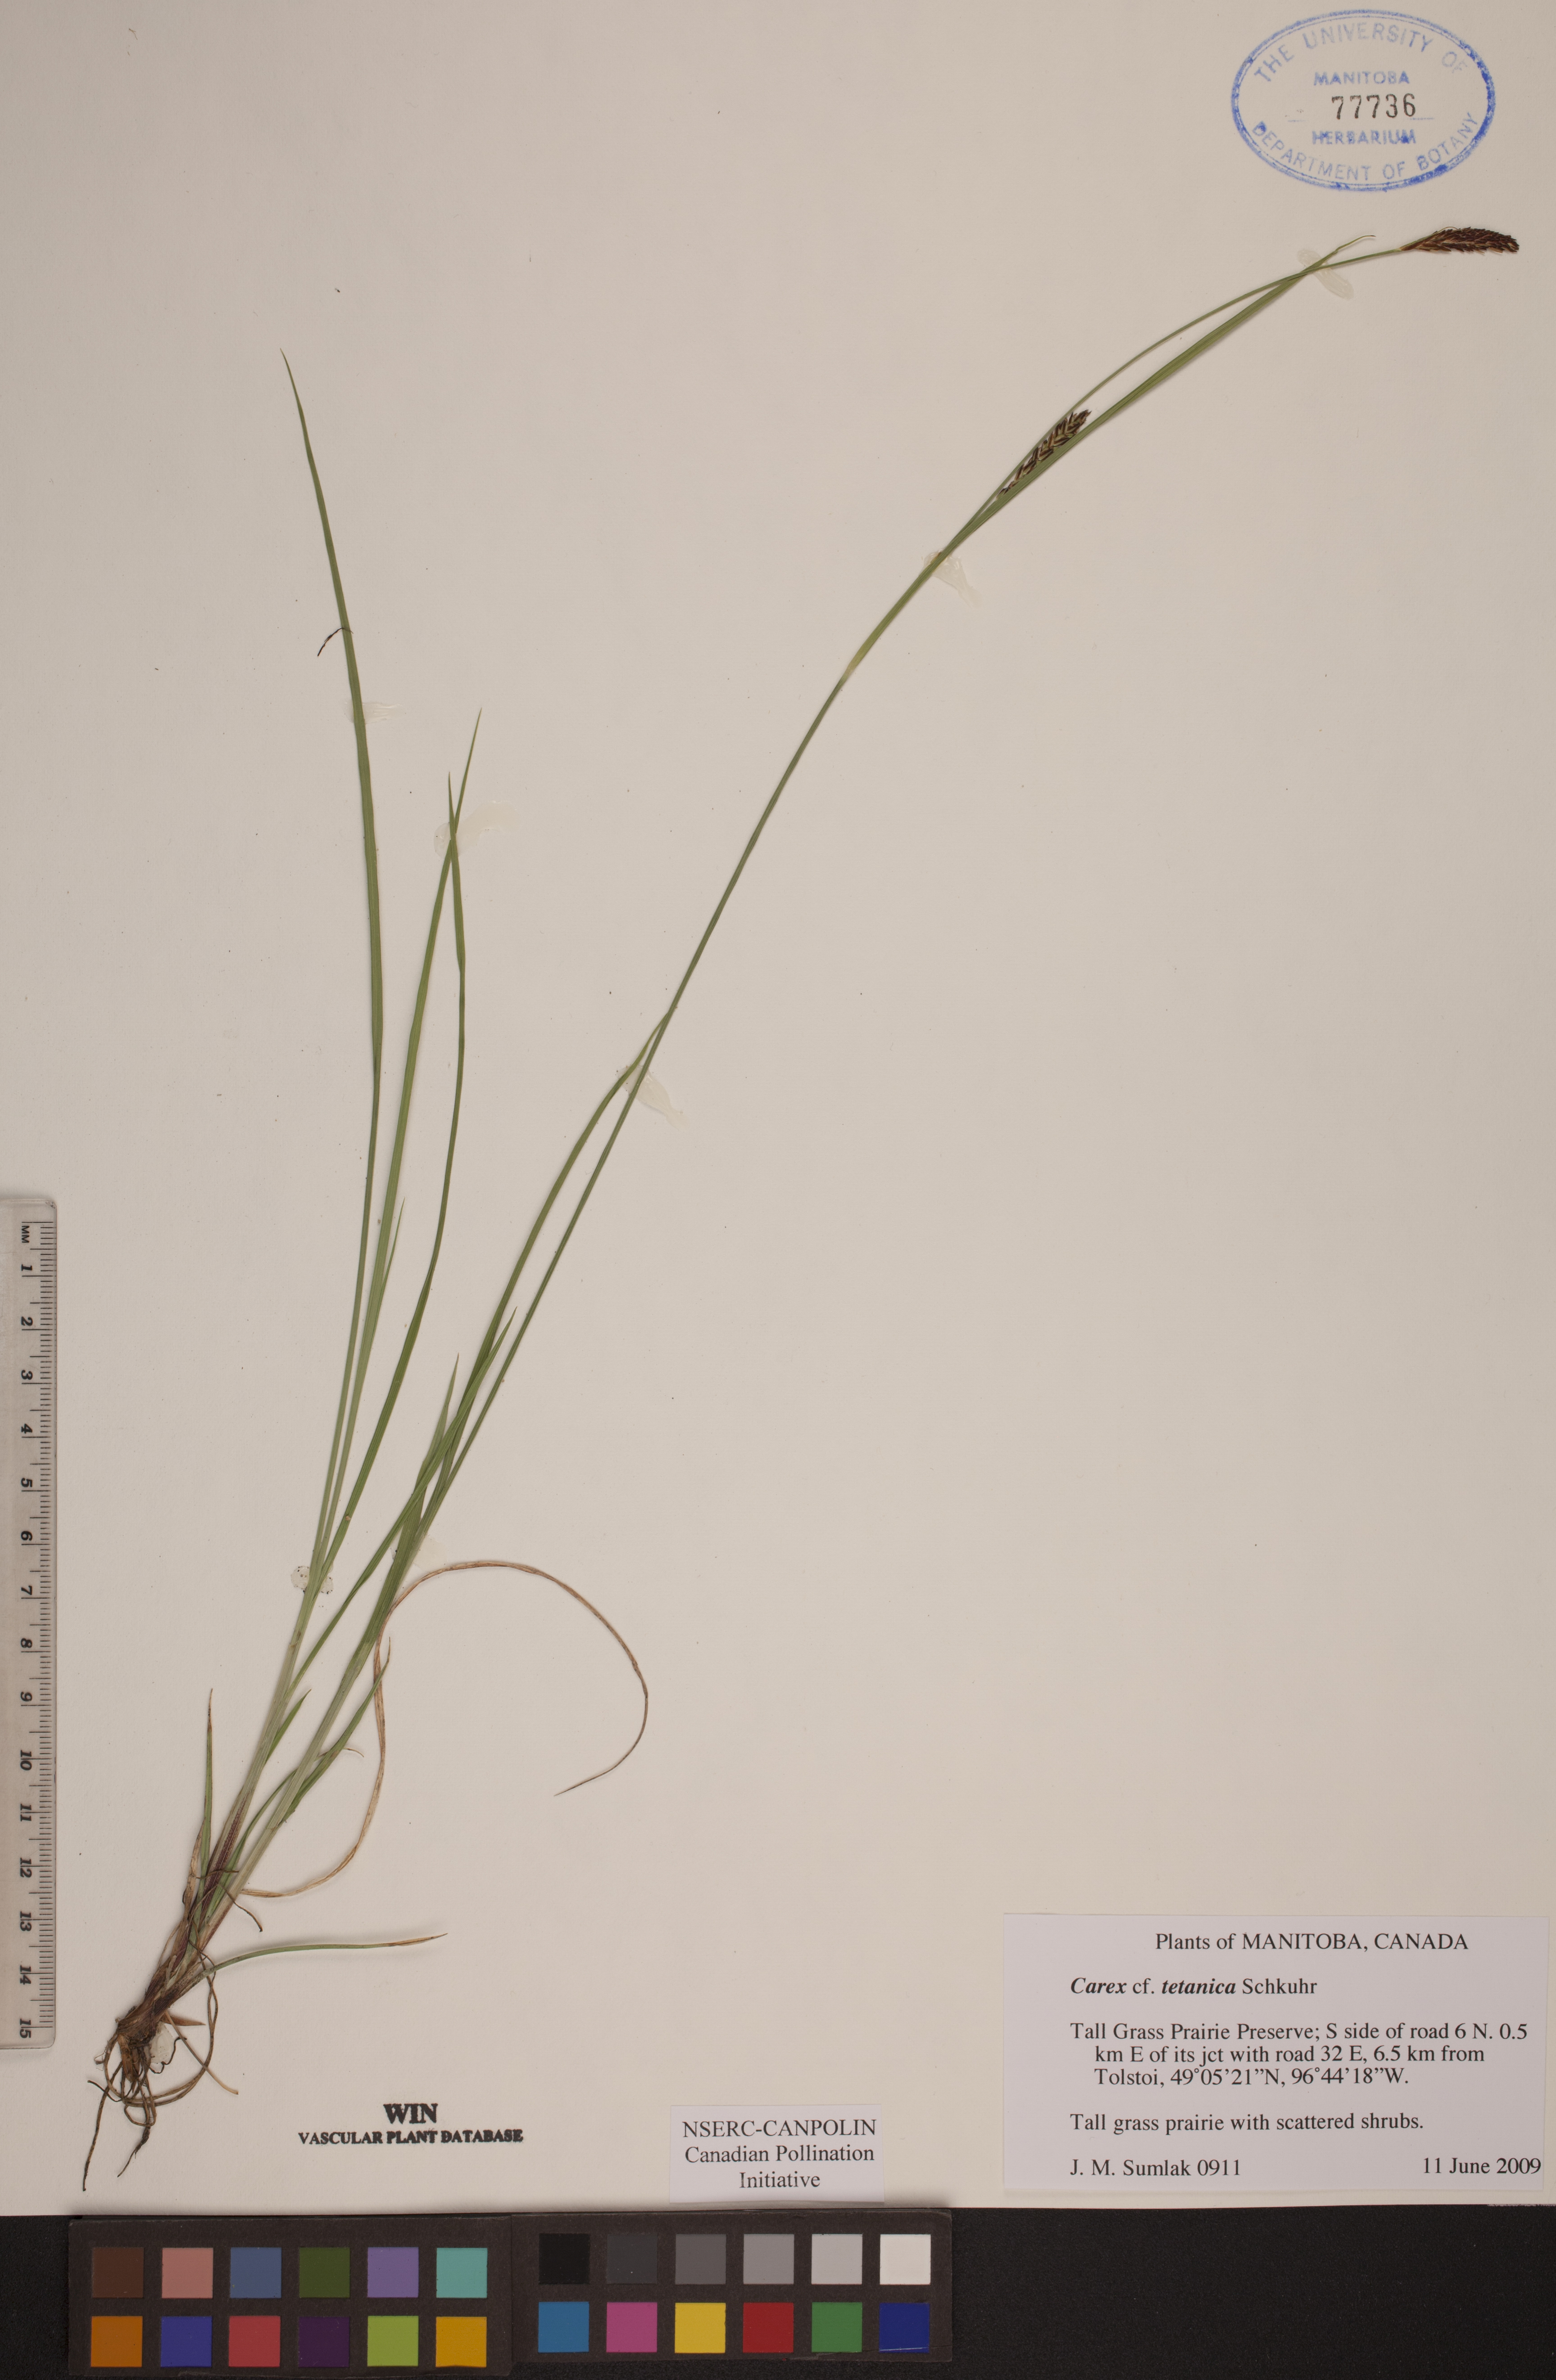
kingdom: Plantae
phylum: Tracheophyta
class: Liliopsida
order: Poales
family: Cyperaceae
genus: Carex
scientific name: Carex tetanica
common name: Rigid sedge
